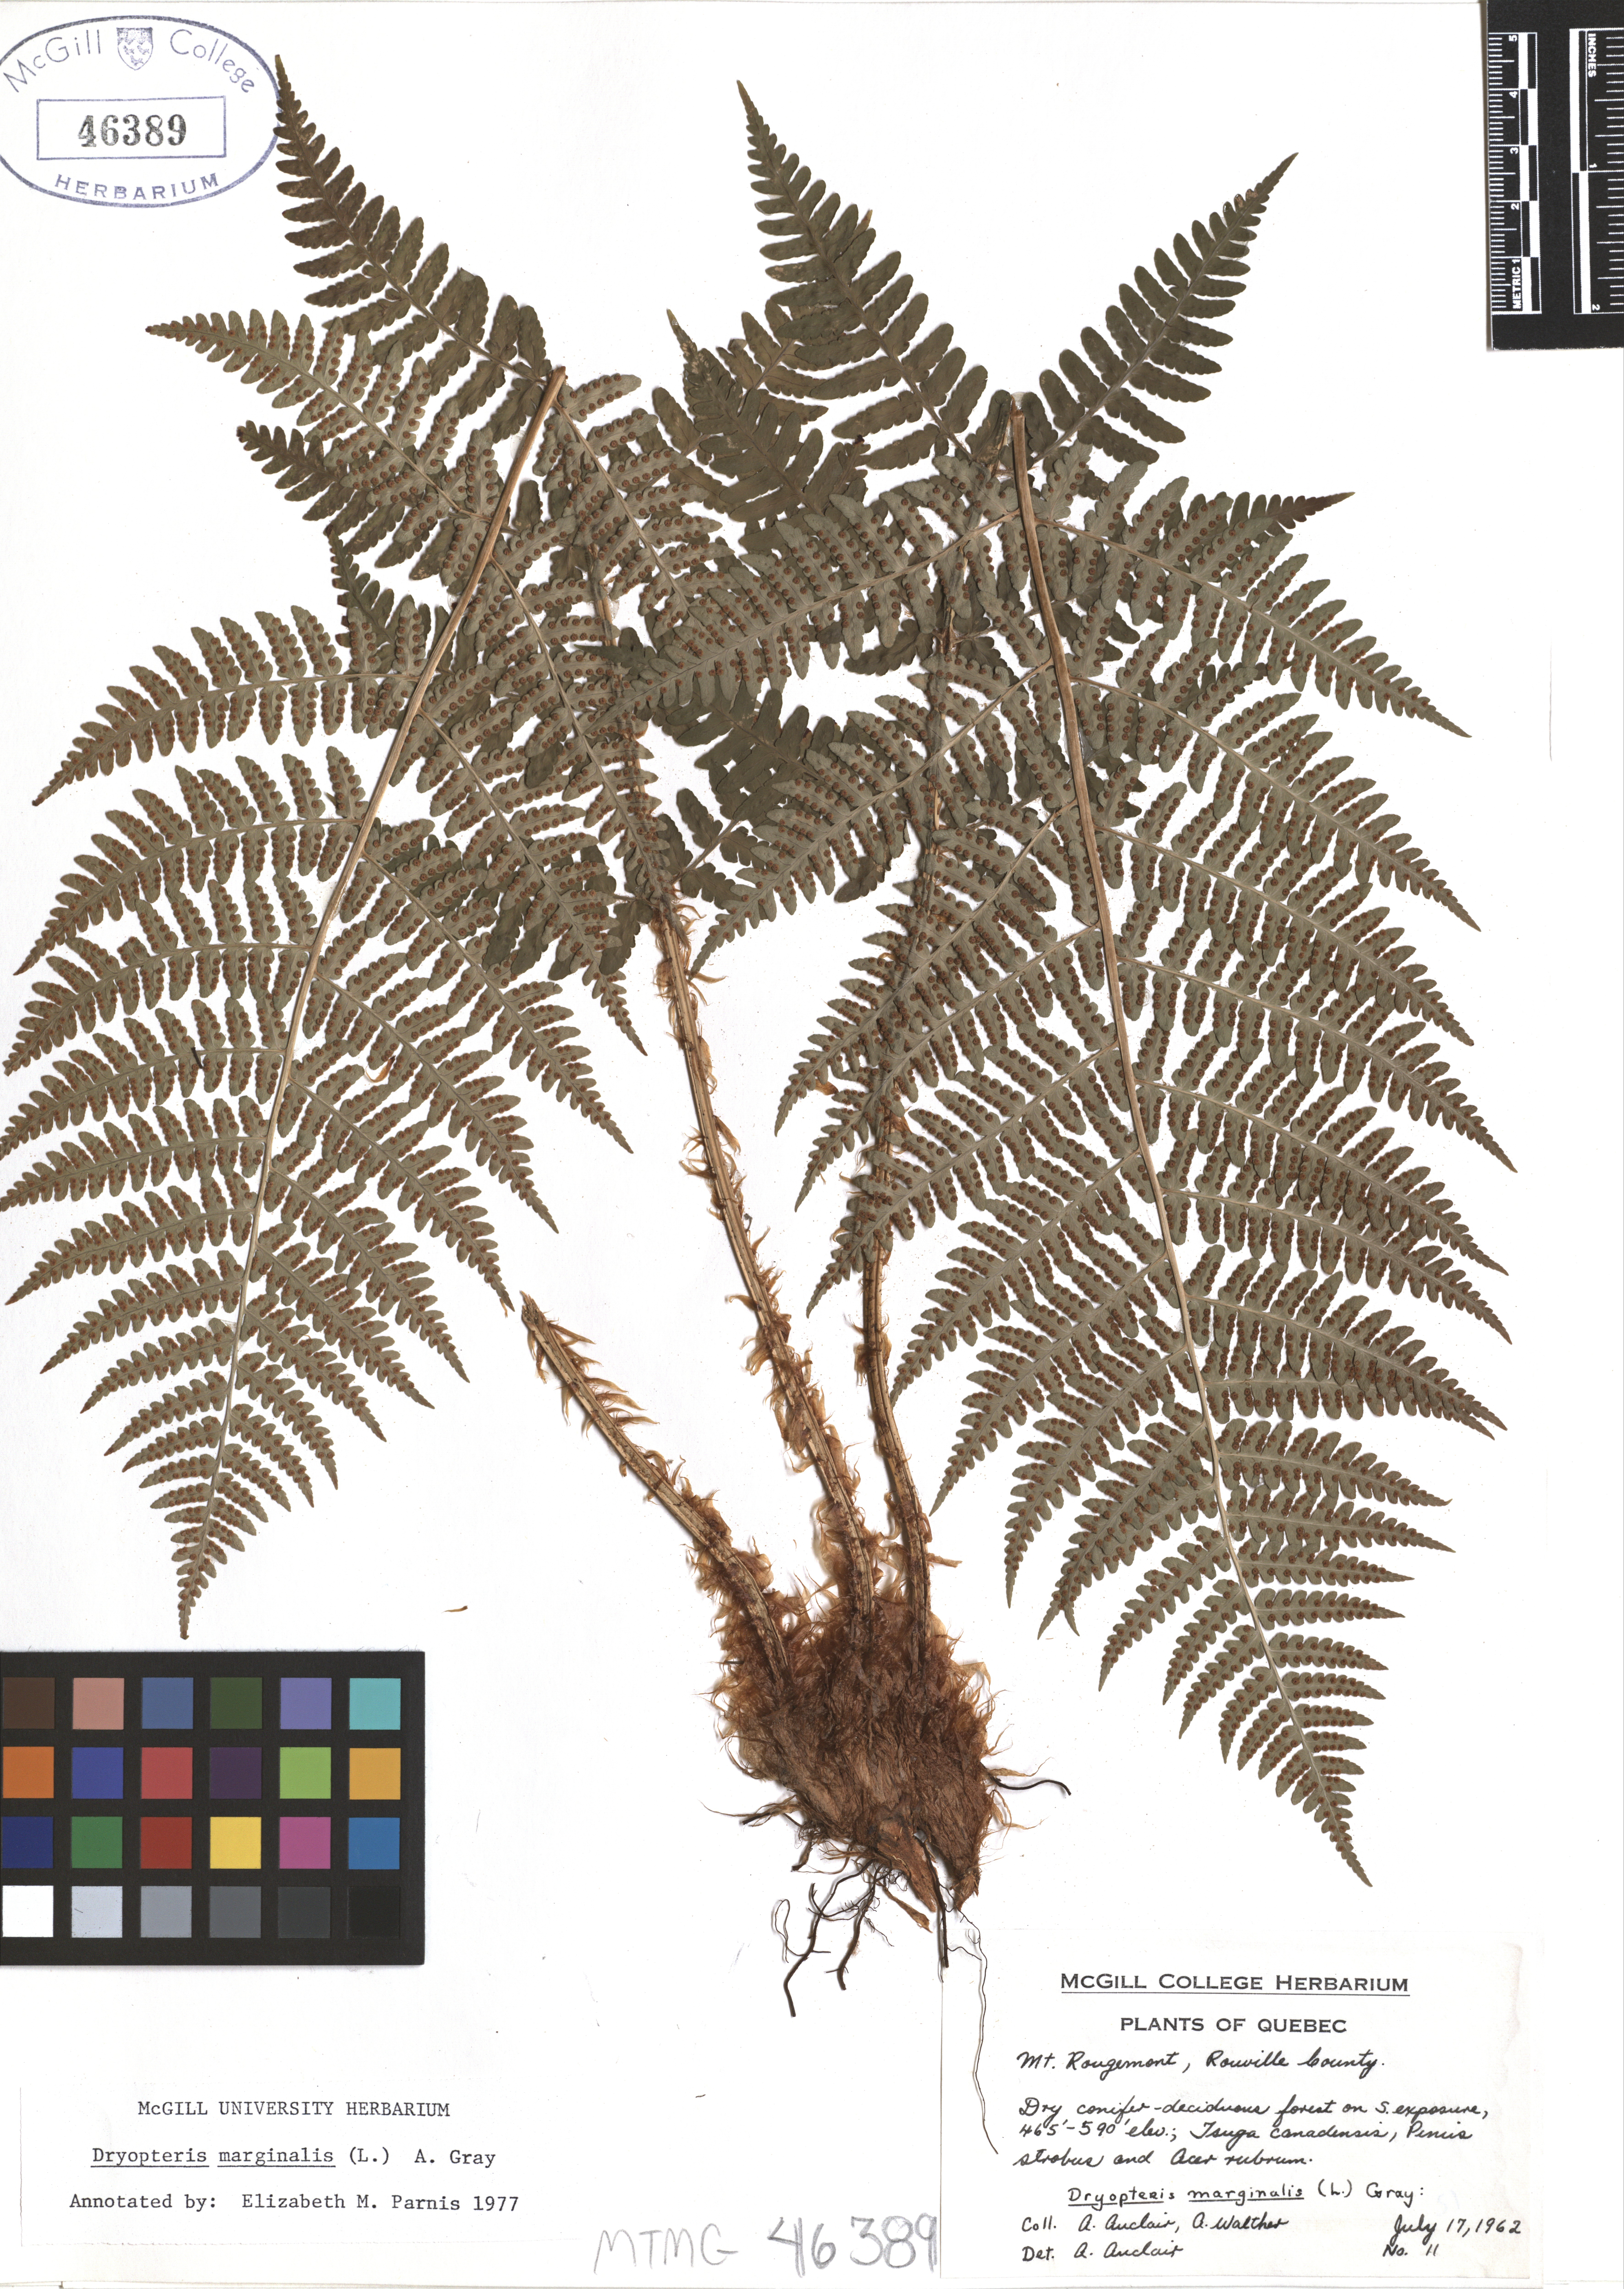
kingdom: Plantae
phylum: Tracheophyta
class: Polypodiopsida
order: Polypodiales
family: Dryopteridaceae
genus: Dryopteris
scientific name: Dryopteris marginalis
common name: Marginal wood fern
